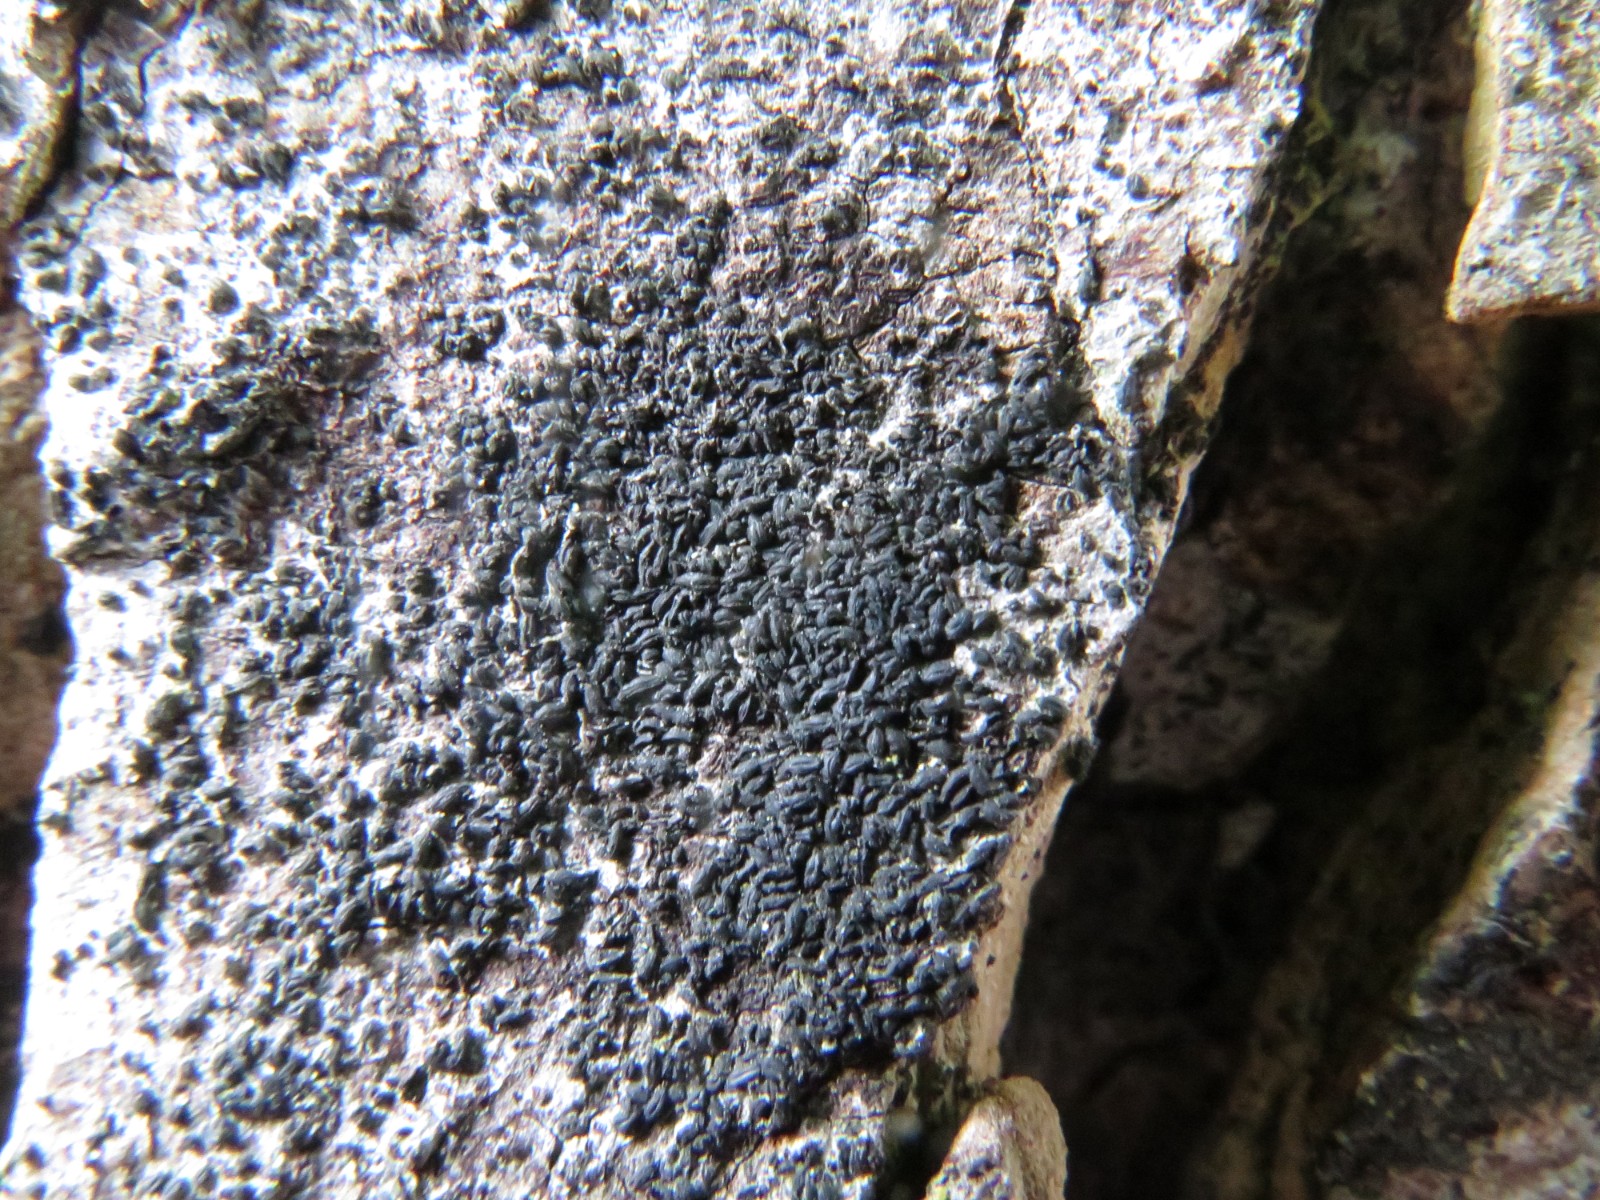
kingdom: Fungi
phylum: Ascomycota
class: Dothideomycetes
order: Hysteriales
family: Hysteriaceae
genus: Hysterium
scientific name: Hysterium pulicare
